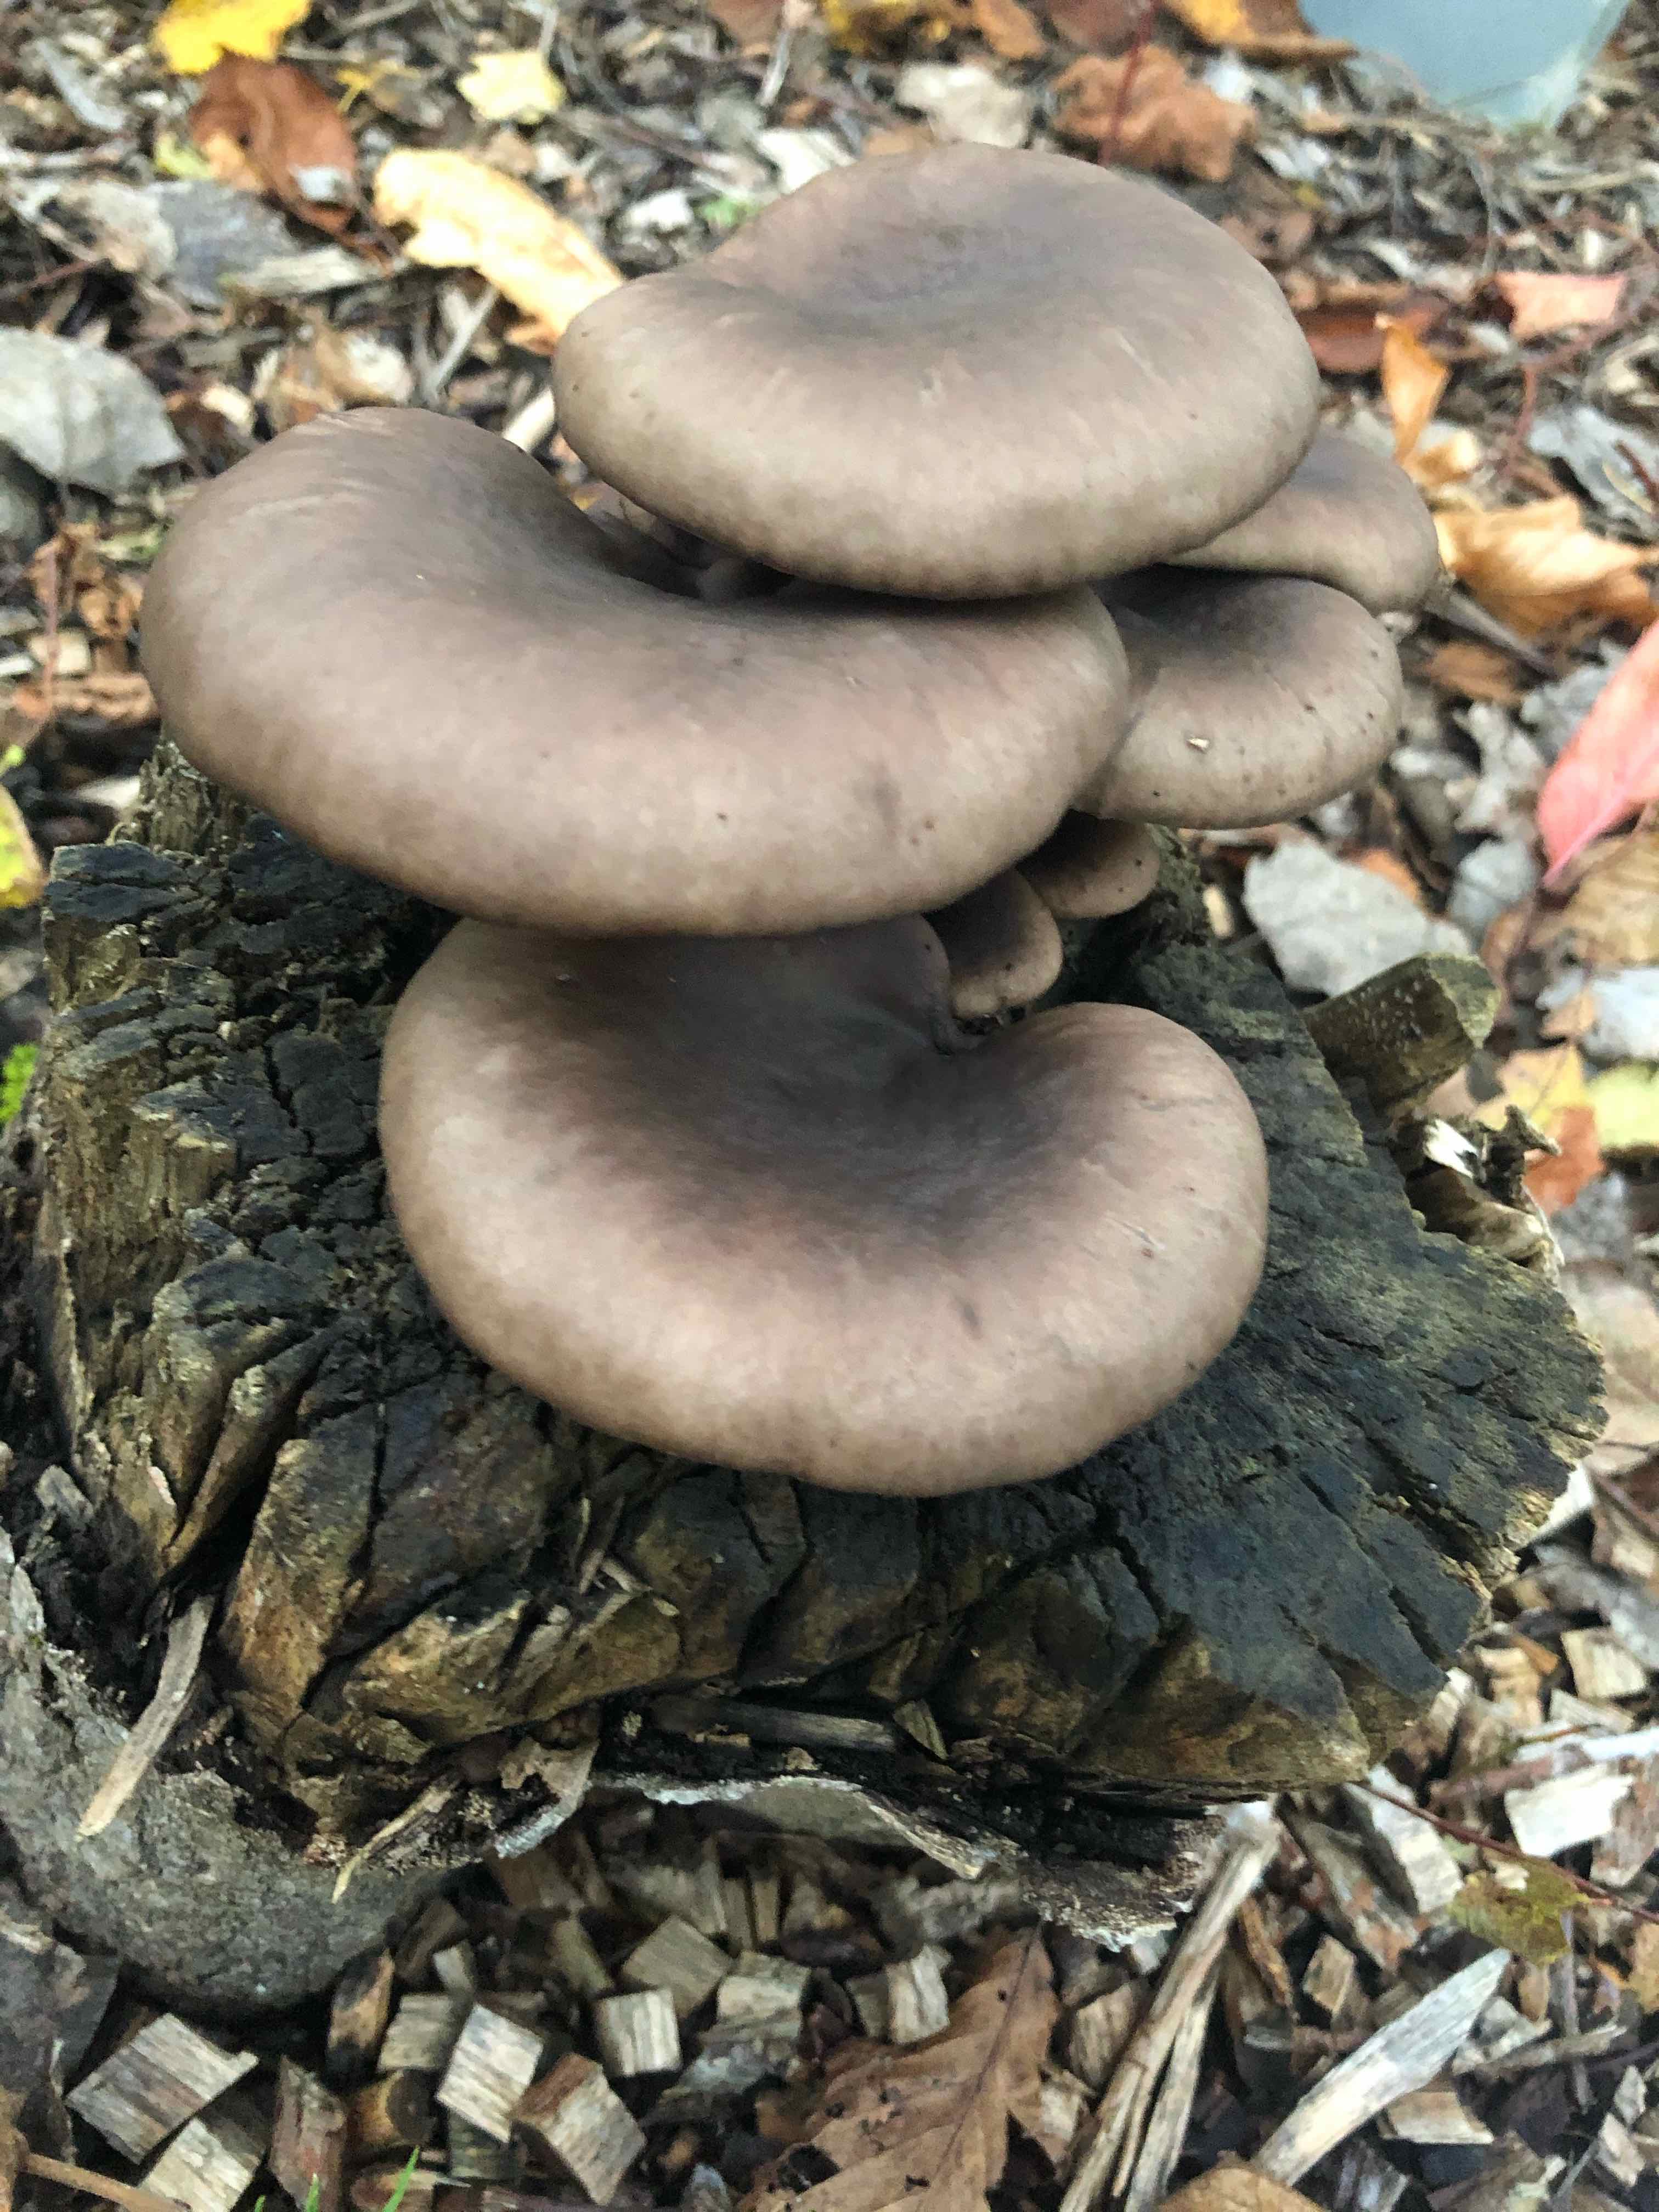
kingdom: Fungi
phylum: Basidiomycota
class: Agaricomycetes
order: Agaricales
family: Pleurotaceae
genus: Pleurotus
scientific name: Pleurotus ostreatus
